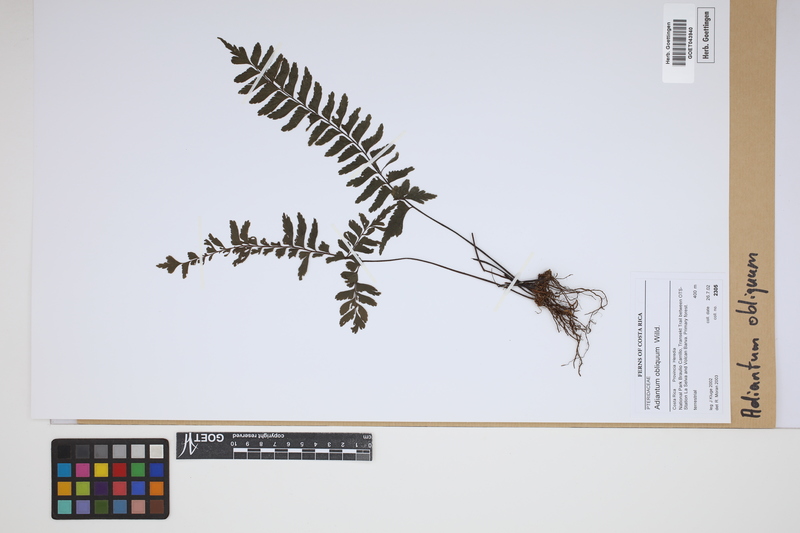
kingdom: Plantae
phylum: Tracheophyta
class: Polypodiopsida
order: Polypodiales
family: Pteridaceae
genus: Adiantum
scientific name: Adiantum obliquum
